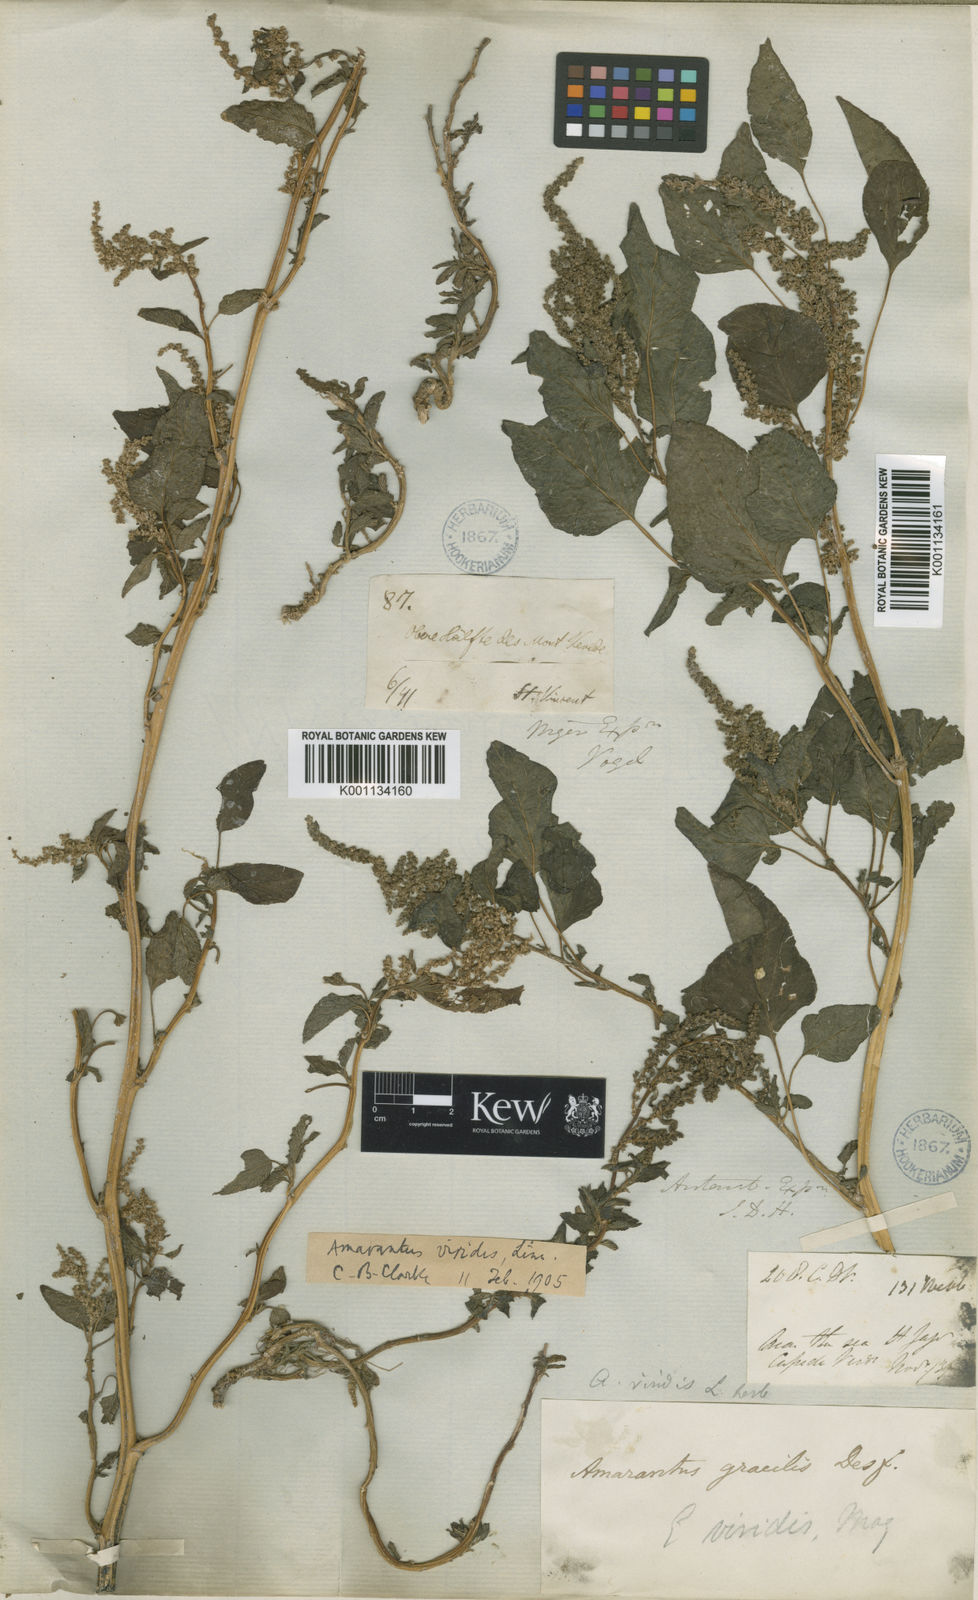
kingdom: Plantae
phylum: Tracheophyta
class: Magnoliopsida
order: Caryophyllales
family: Amaranthaceae
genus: Amaranthus
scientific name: Amaranthus viridis
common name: Slender amaranth
